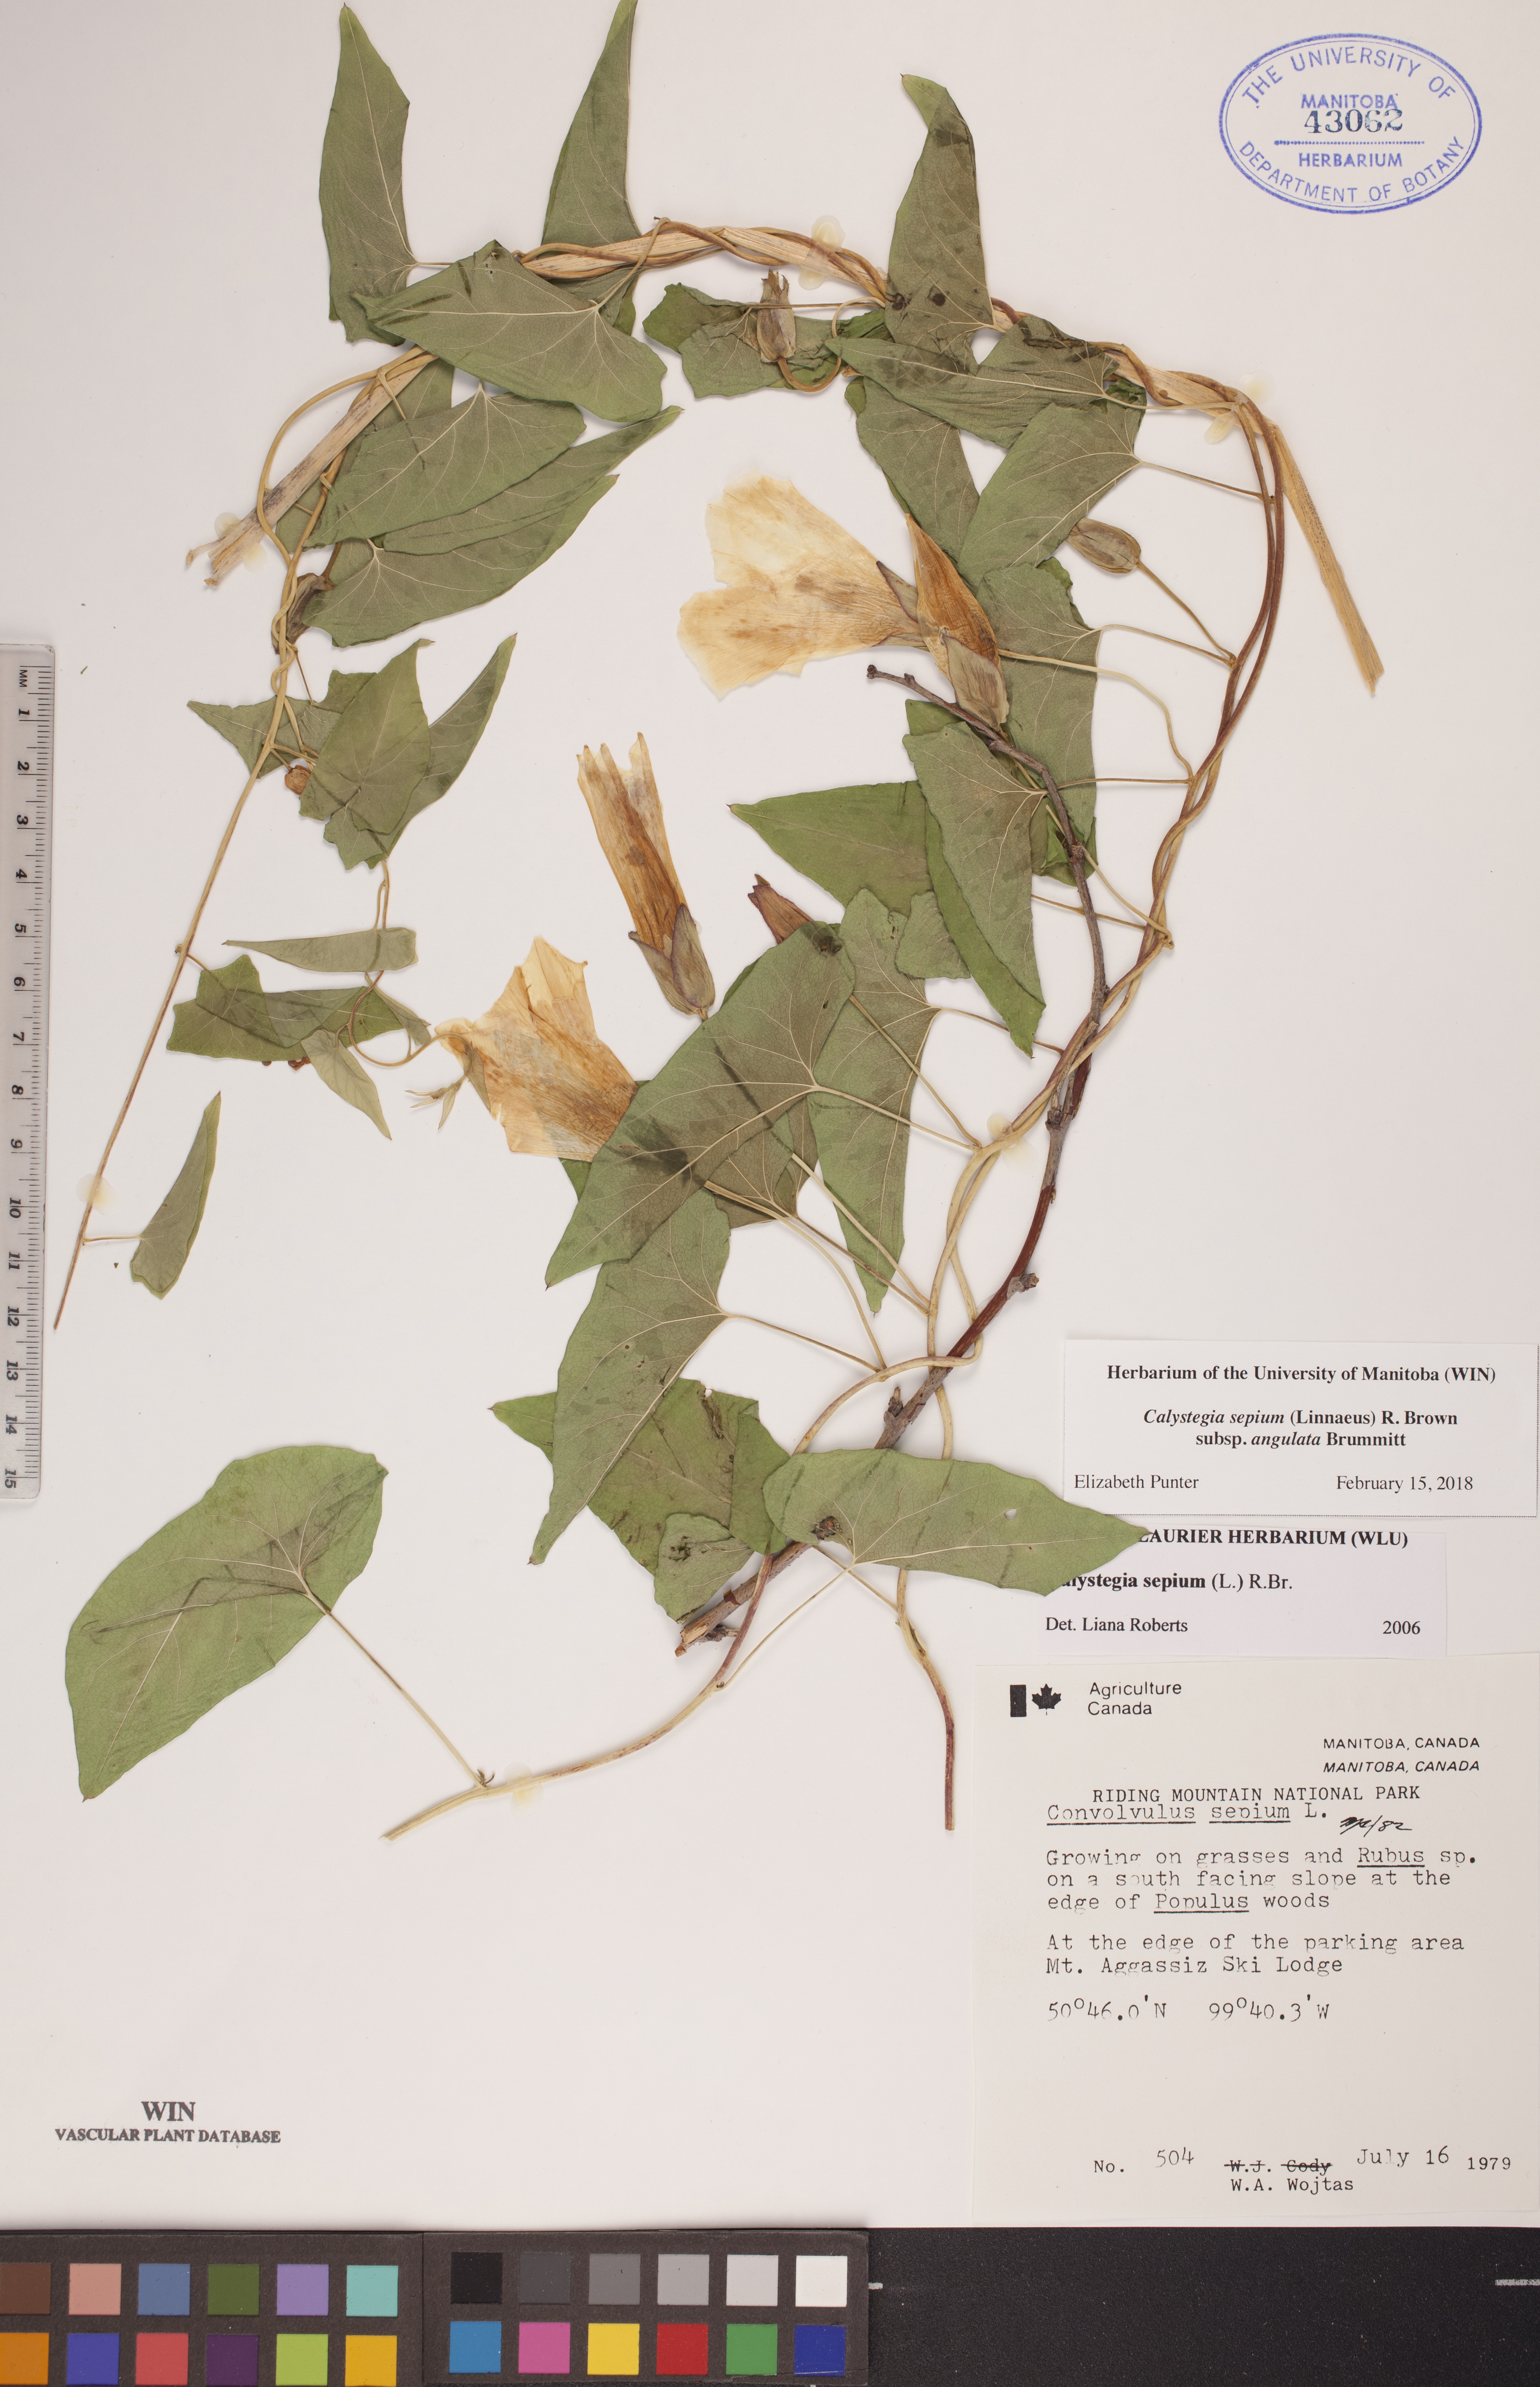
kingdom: Plantae
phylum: Tracheophyta
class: Magnoliopsida
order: Solanales
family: Convolvulaceae
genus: Calystegia
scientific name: Calystegia sepium
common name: Hedge bindweed
